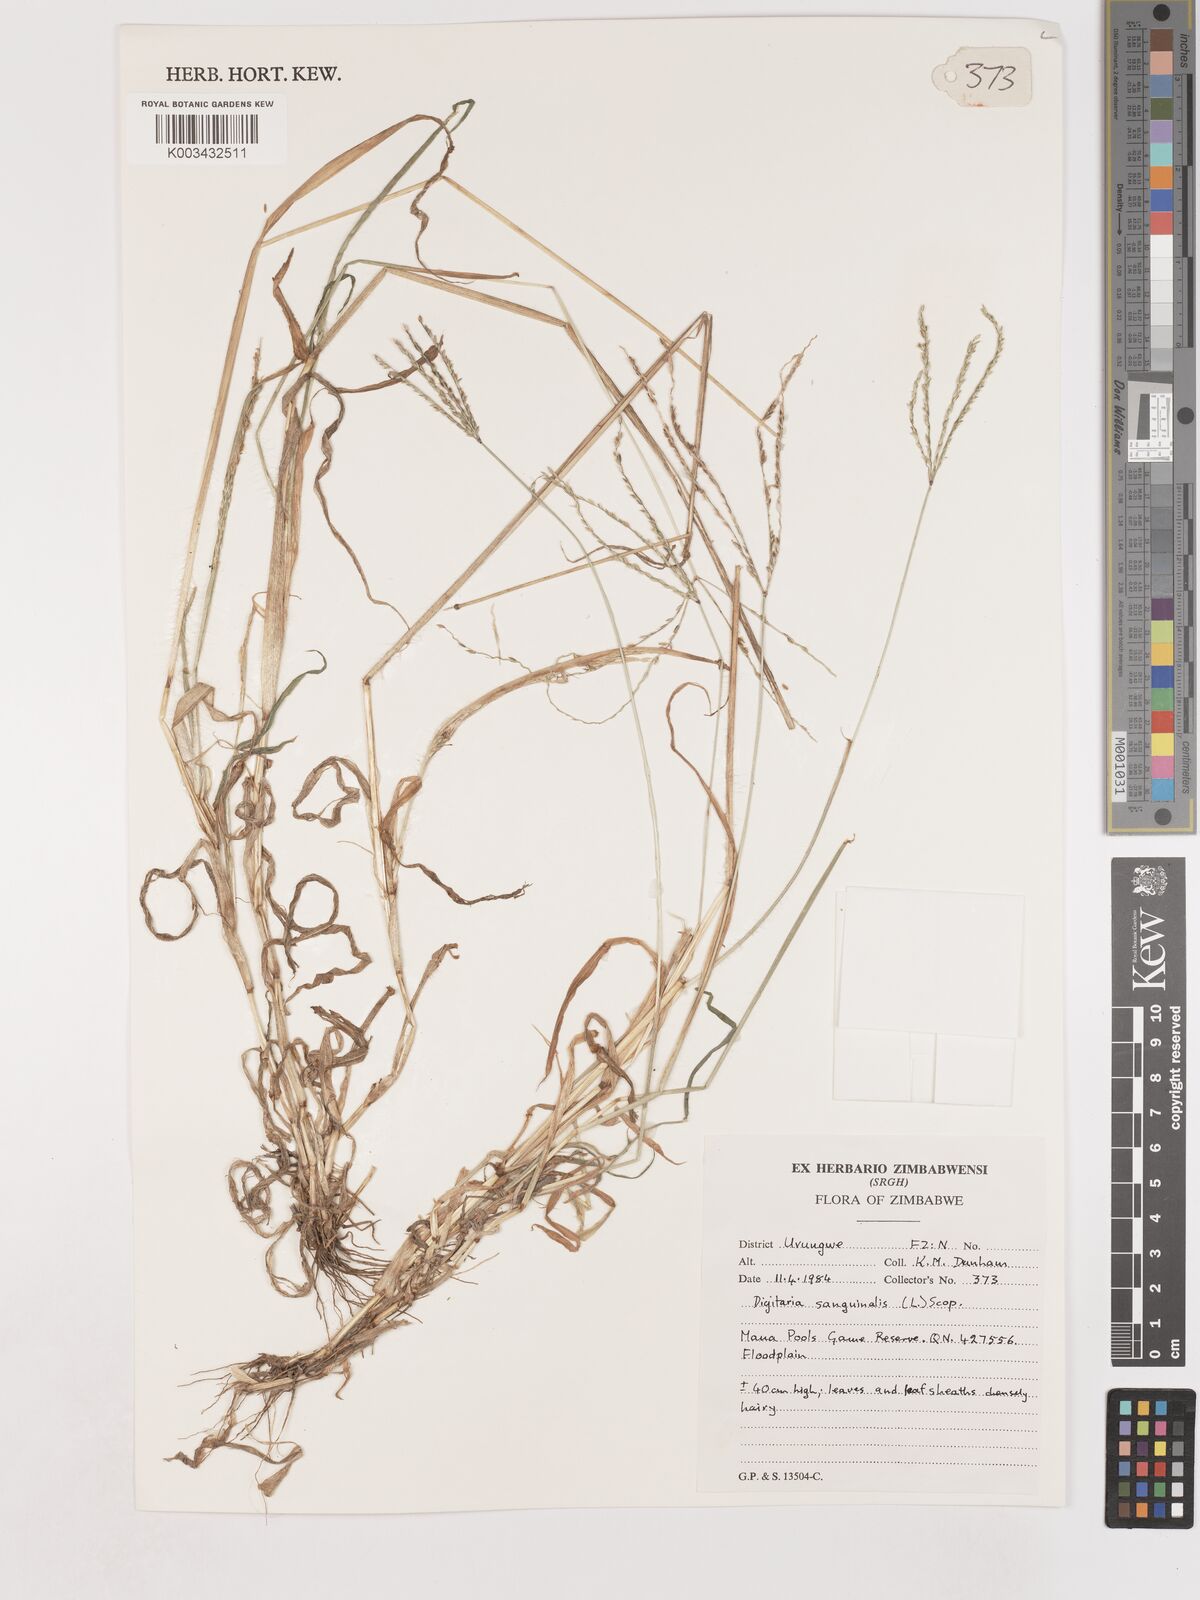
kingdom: Plantae
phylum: Tracheophyta
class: Liliopsida
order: Poales
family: Poaceae
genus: Digitaria
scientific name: Digitaria sanguinalis
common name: Hairy crabgrass
